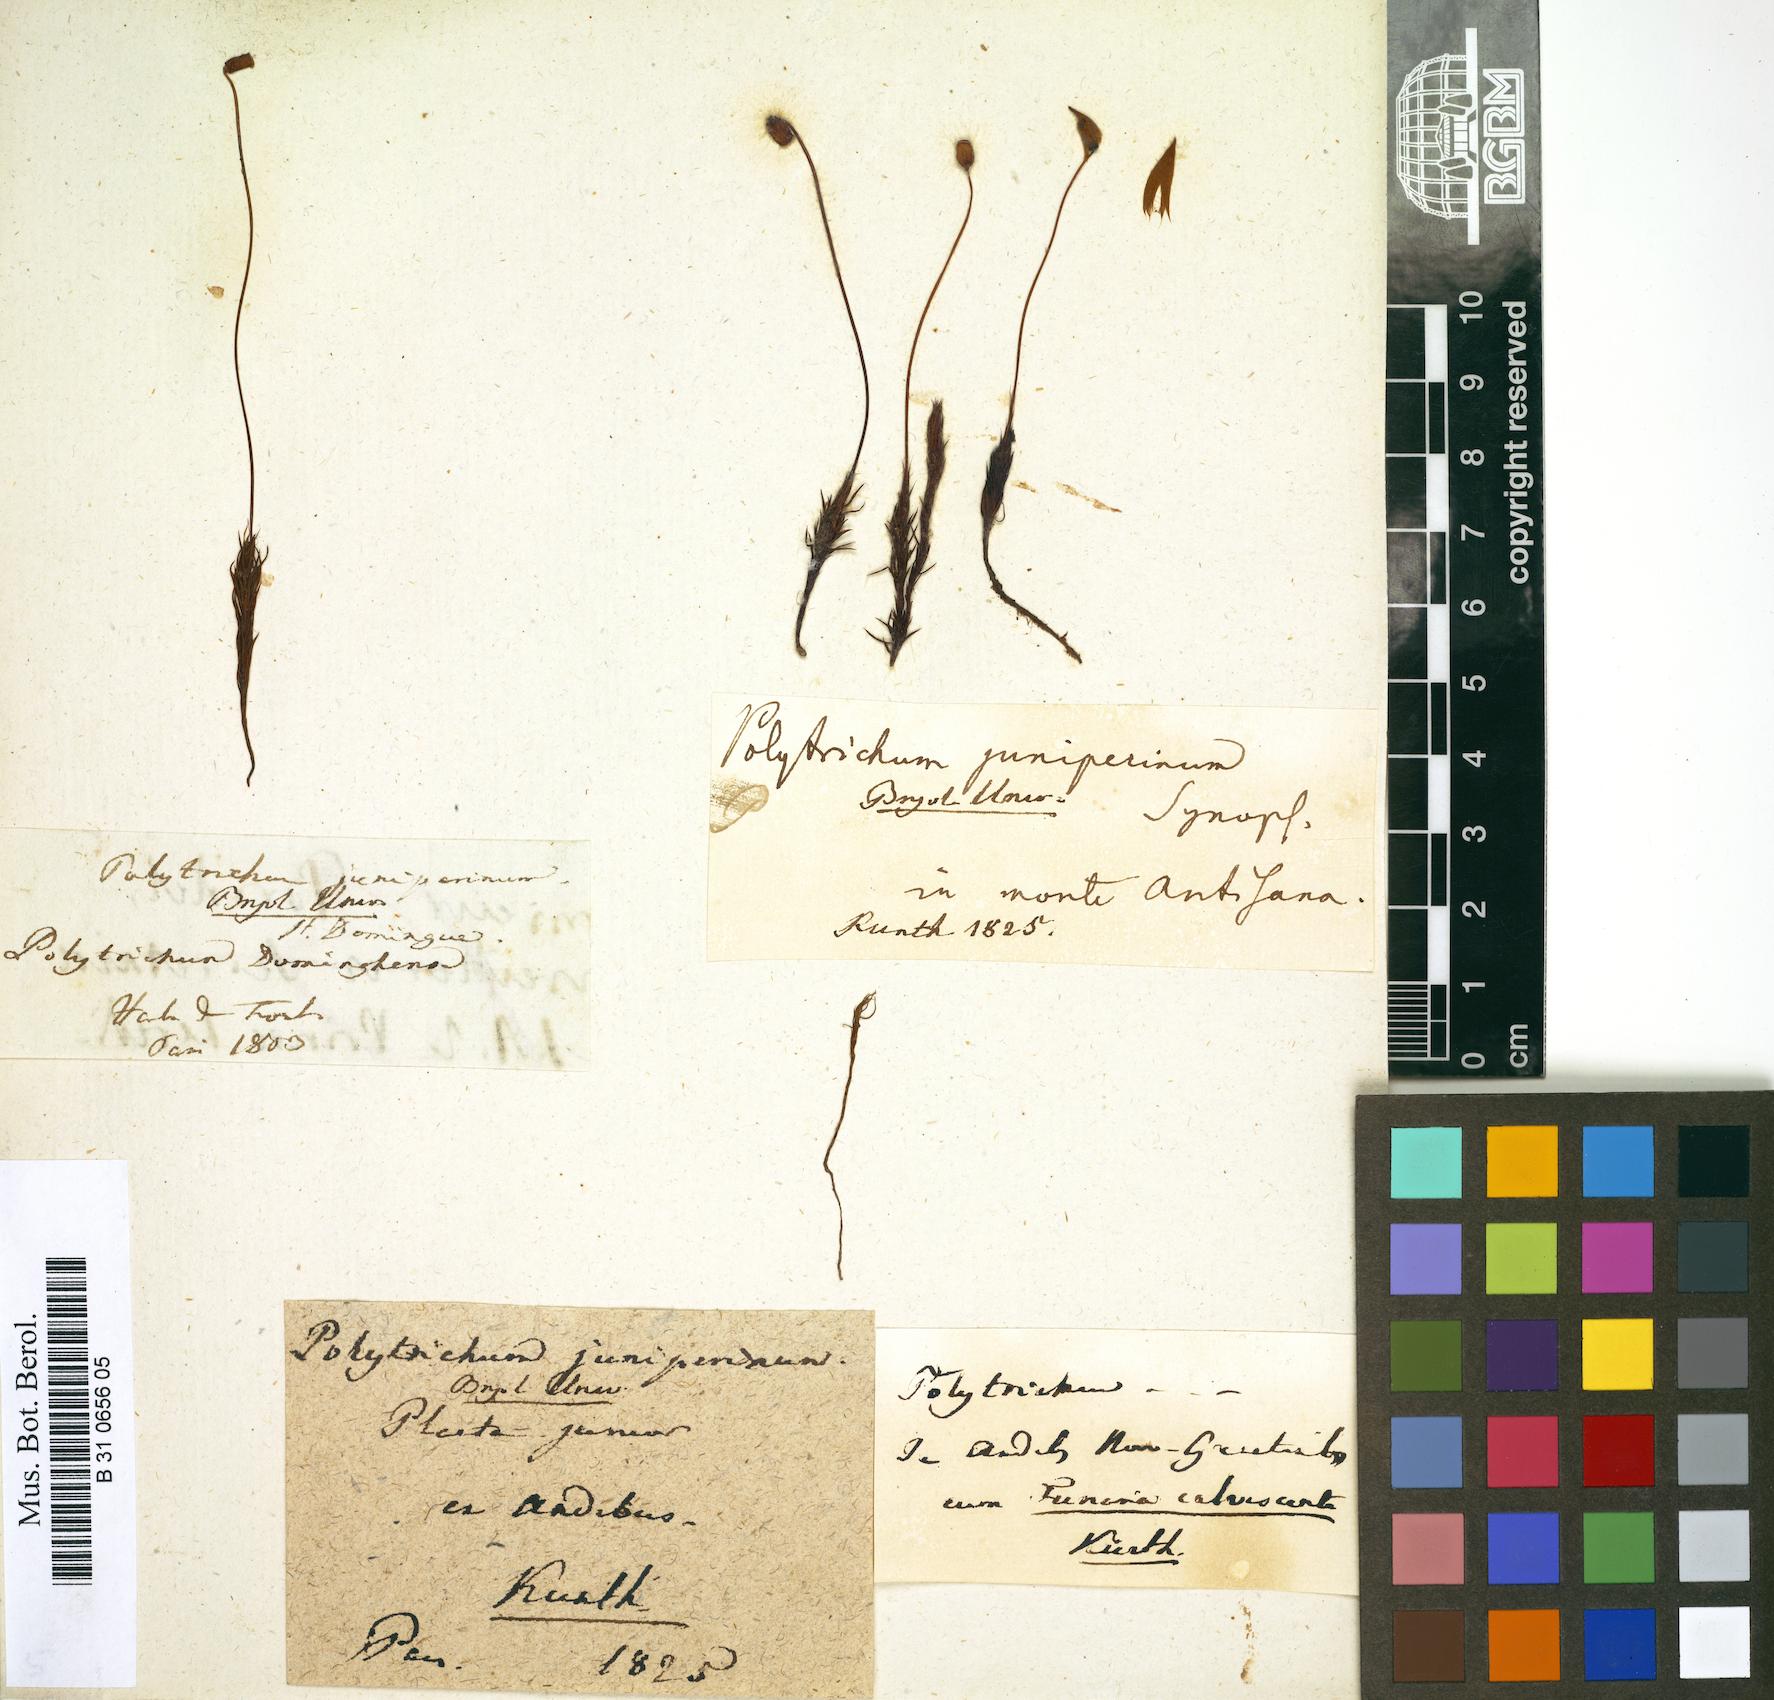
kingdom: Plantae
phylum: Bryophyta
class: Polytrichopsida
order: Polytrichales
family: Polytrichaceae
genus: Polytrichum
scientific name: Polytrichum juniperinum
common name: Juniper haircap moss
